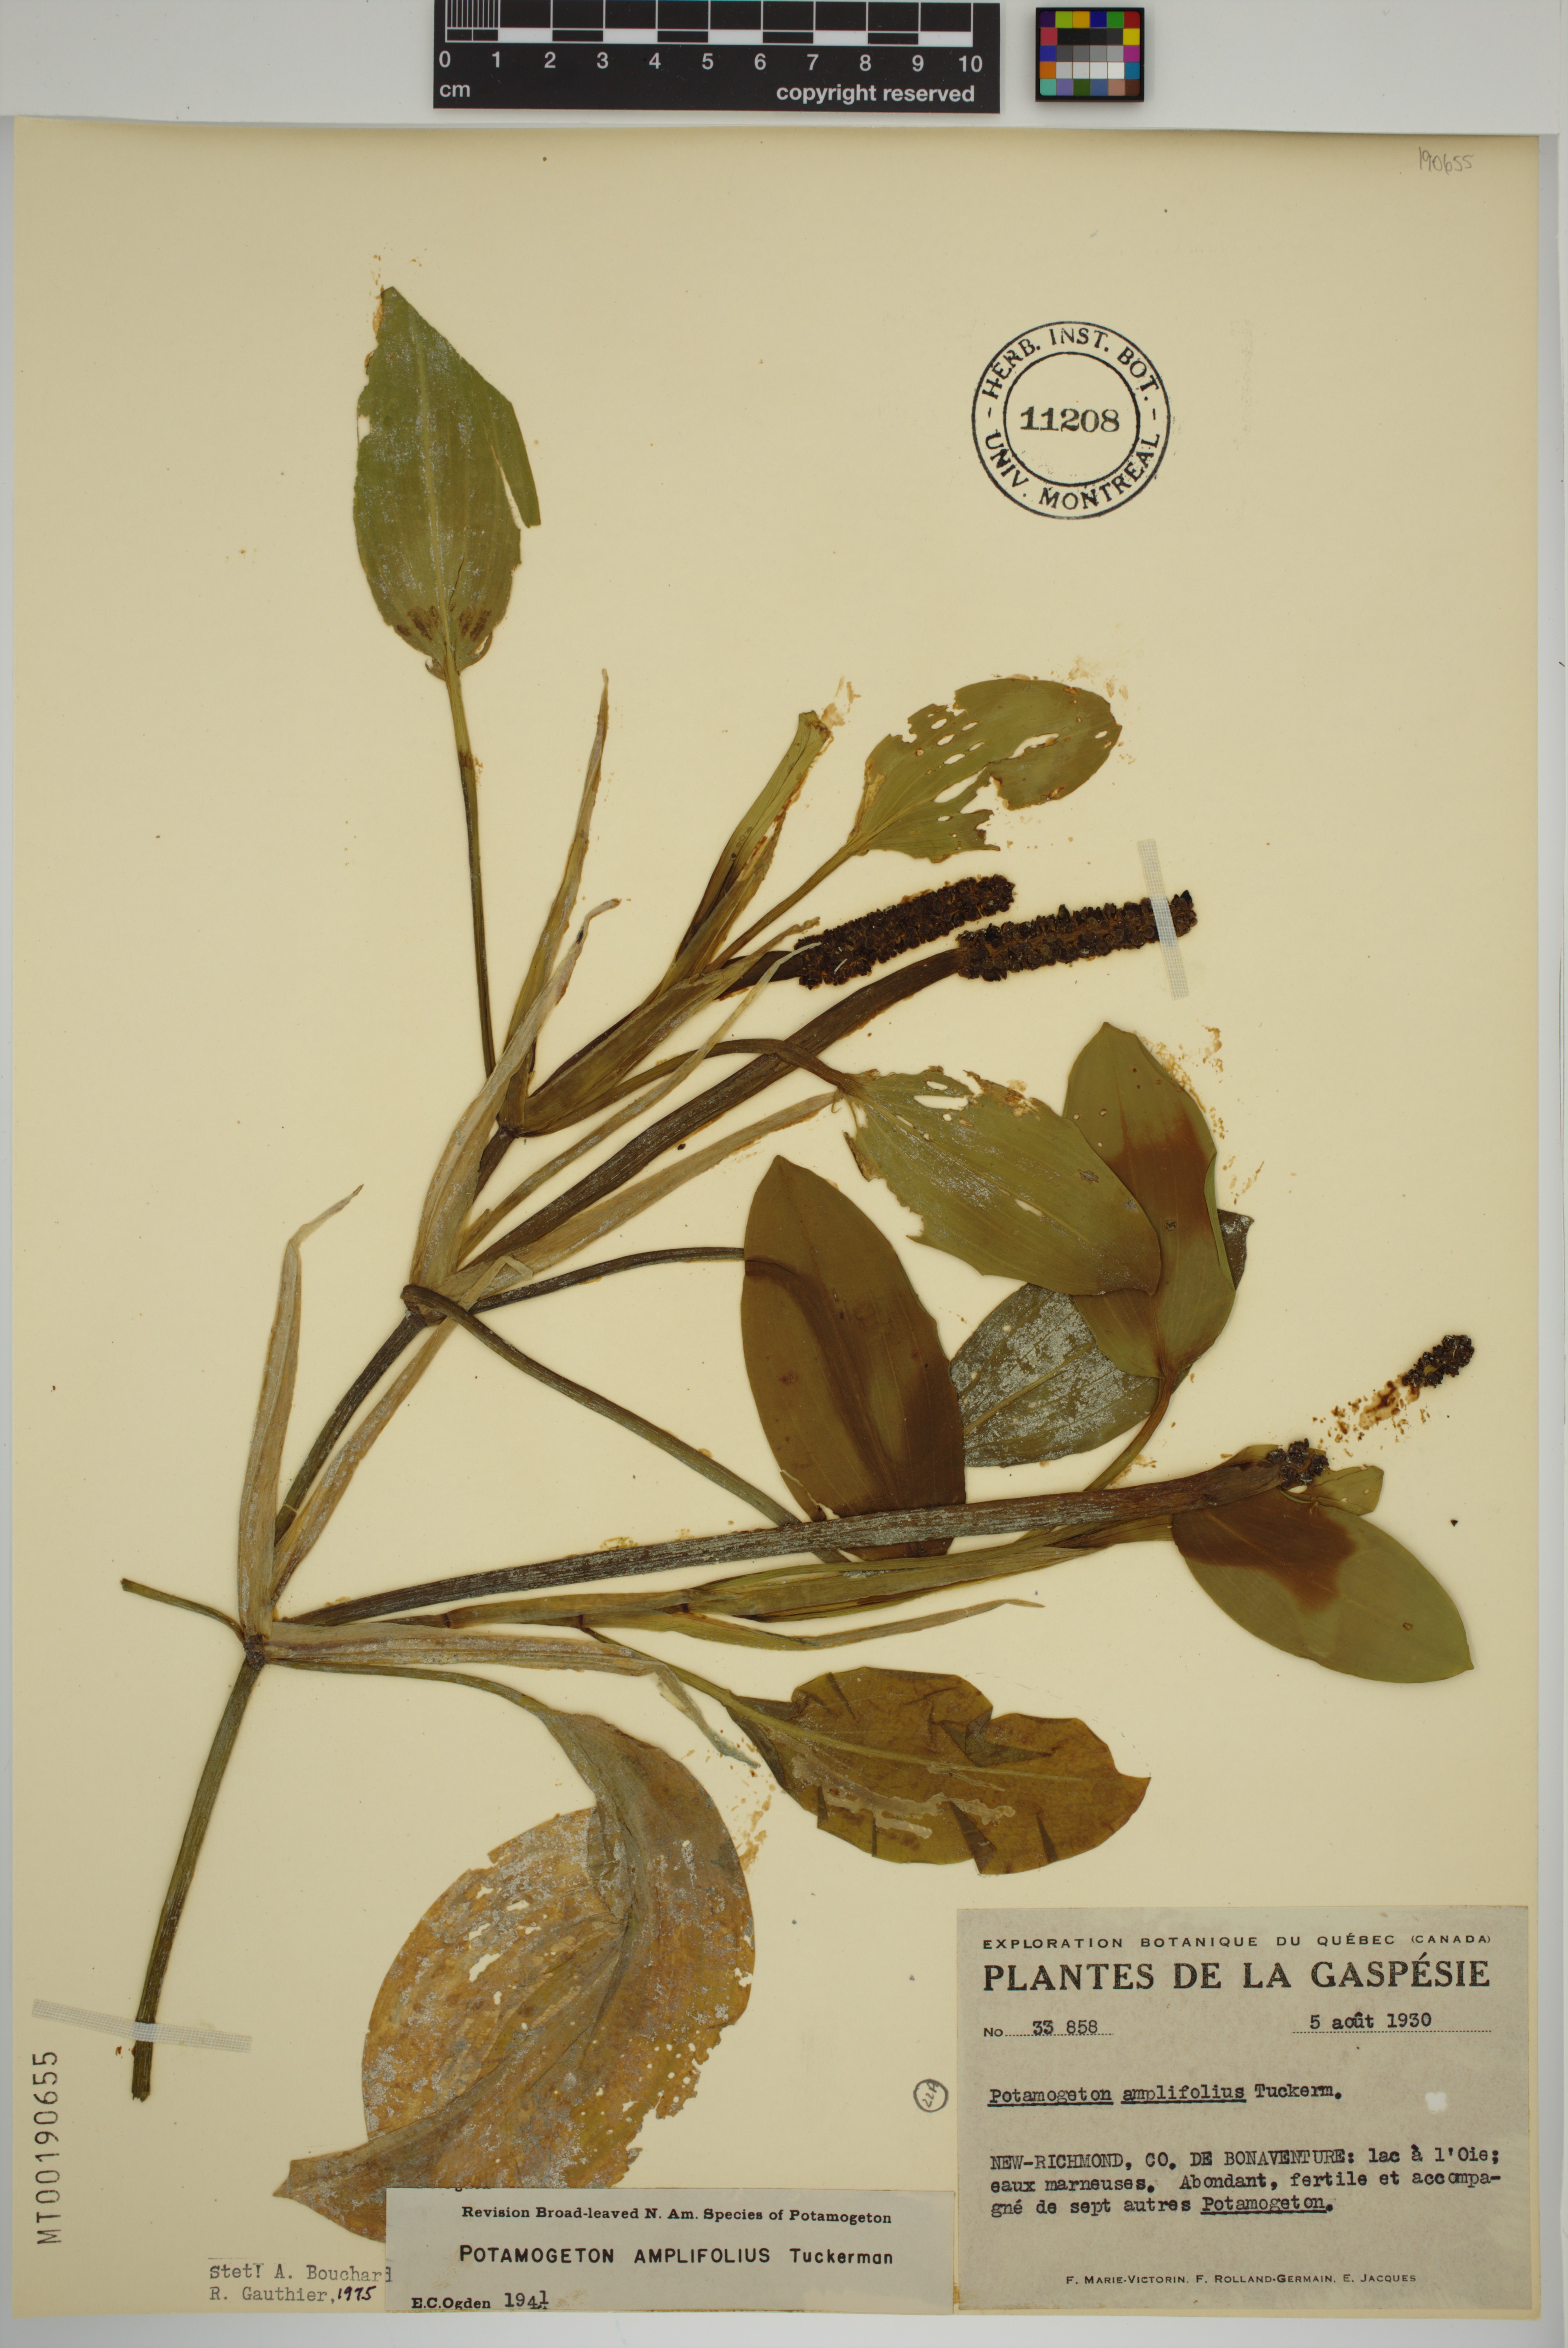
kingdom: Plantae
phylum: Tracheophyta
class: Liliopsida
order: Alismatales
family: Potamogetonaceae
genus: Potamogeton
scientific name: Potamogeton amplifolius
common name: Broad-leaved pondweed
